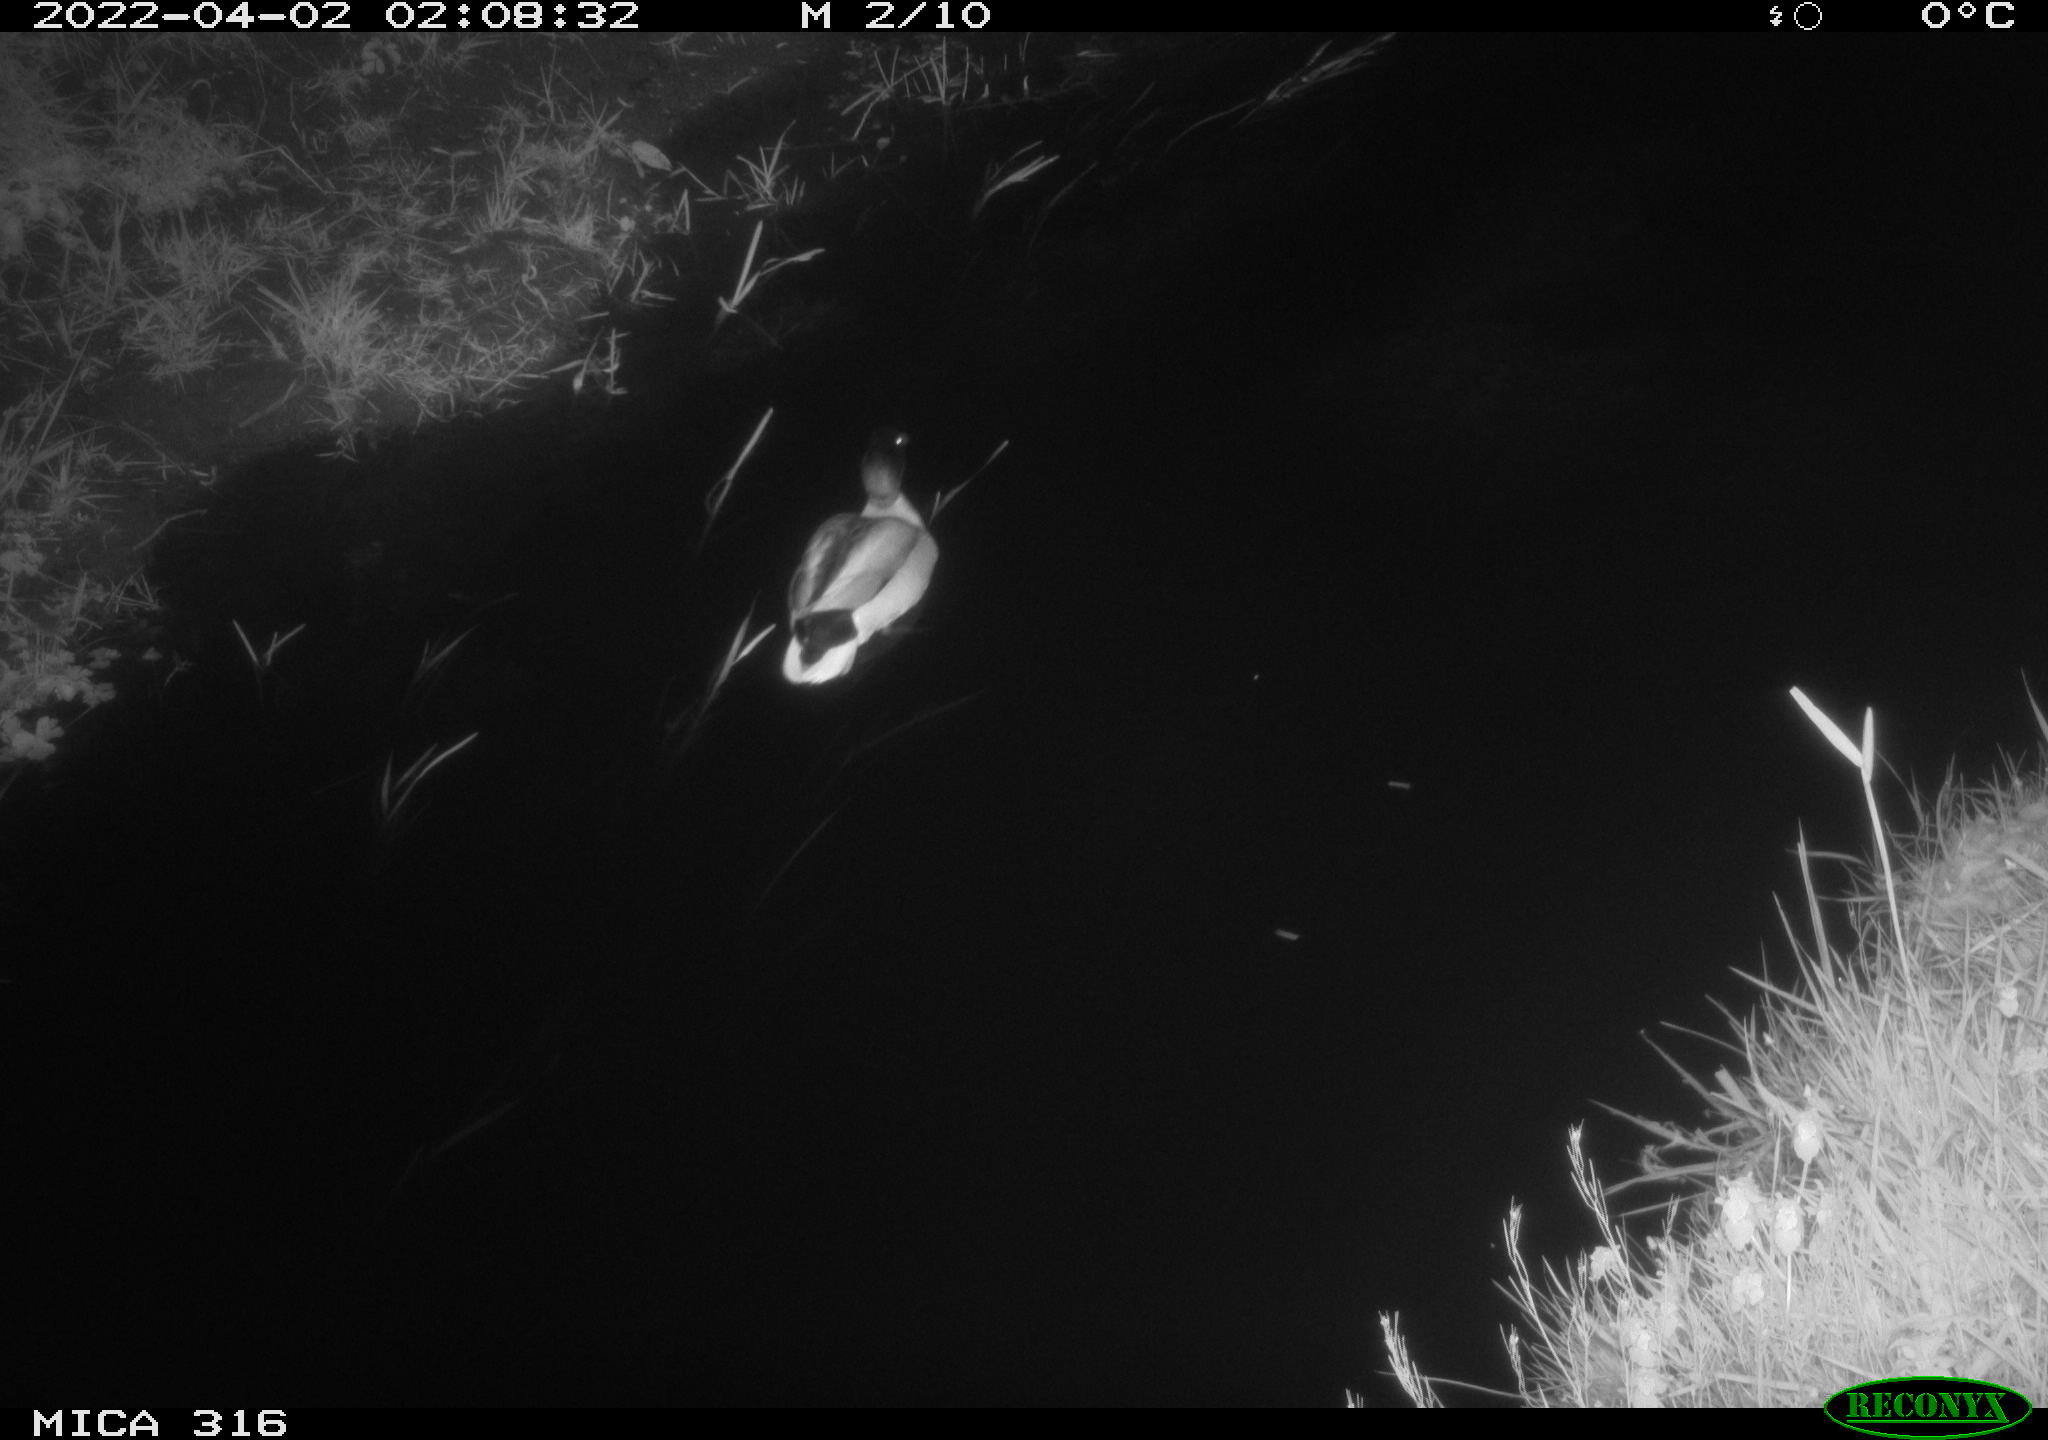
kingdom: Animalia
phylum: Chordata
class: Aves
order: Anseriformes
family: Anatidae
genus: Anas
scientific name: Anas platyrhynchos
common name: Mallard
